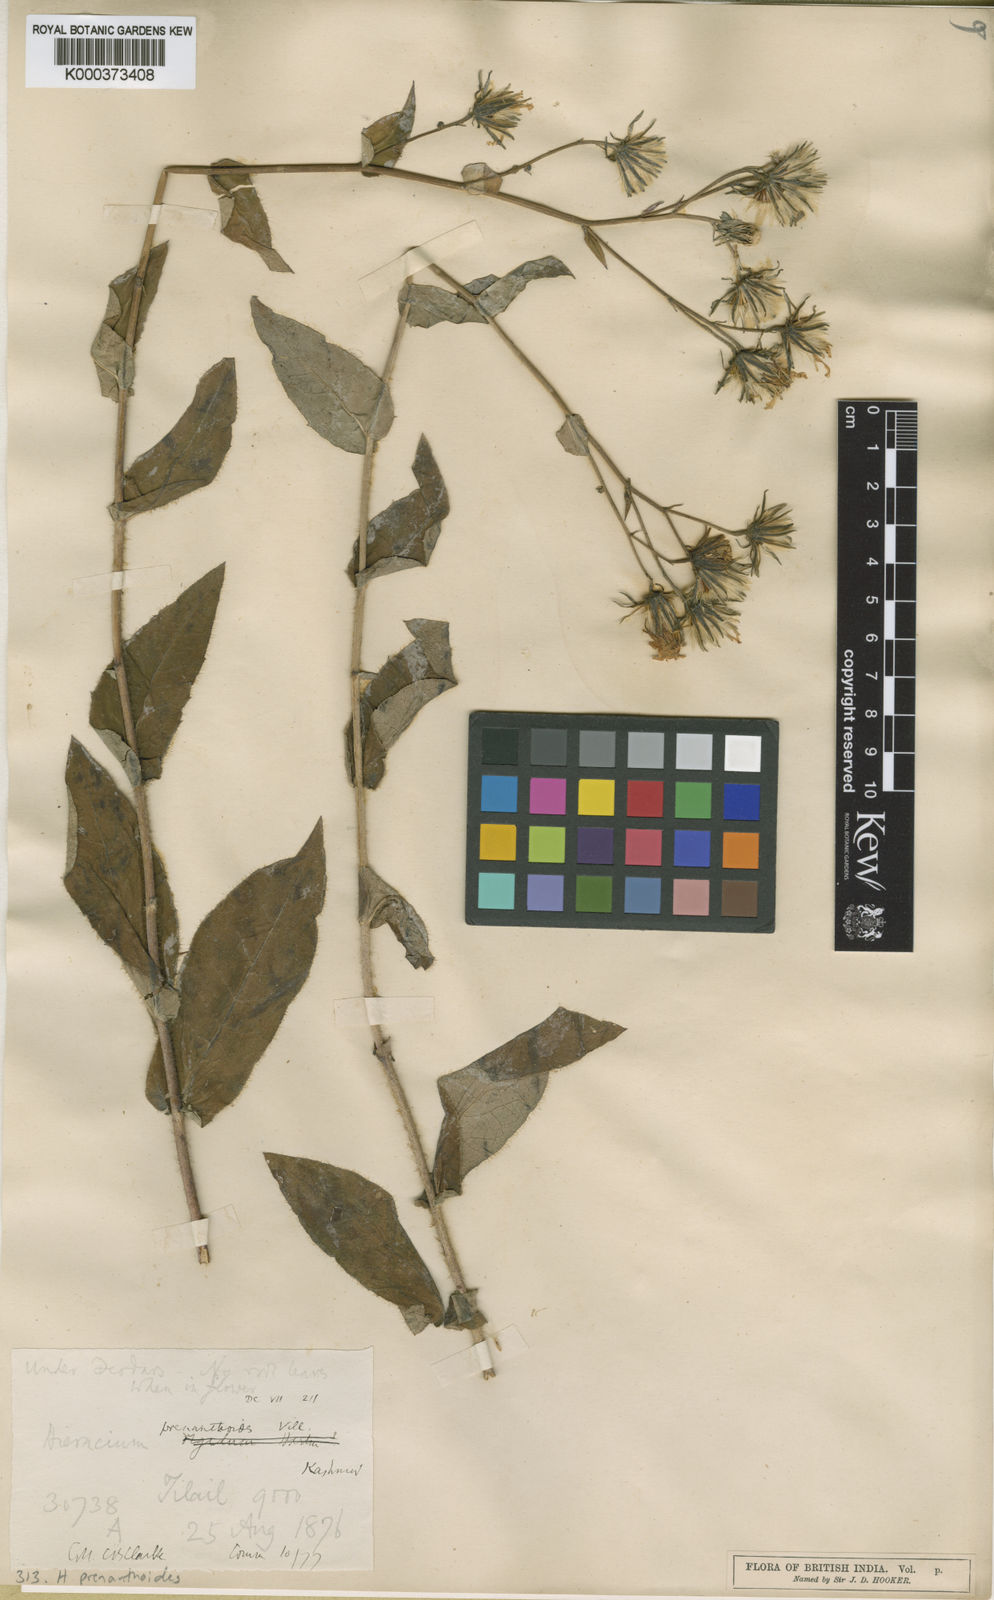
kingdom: Plantae
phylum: Tracheophyta
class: Magnoliopsida
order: Asterales
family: Asteraceae
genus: Hieracium
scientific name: Hieracium prenanthoides
